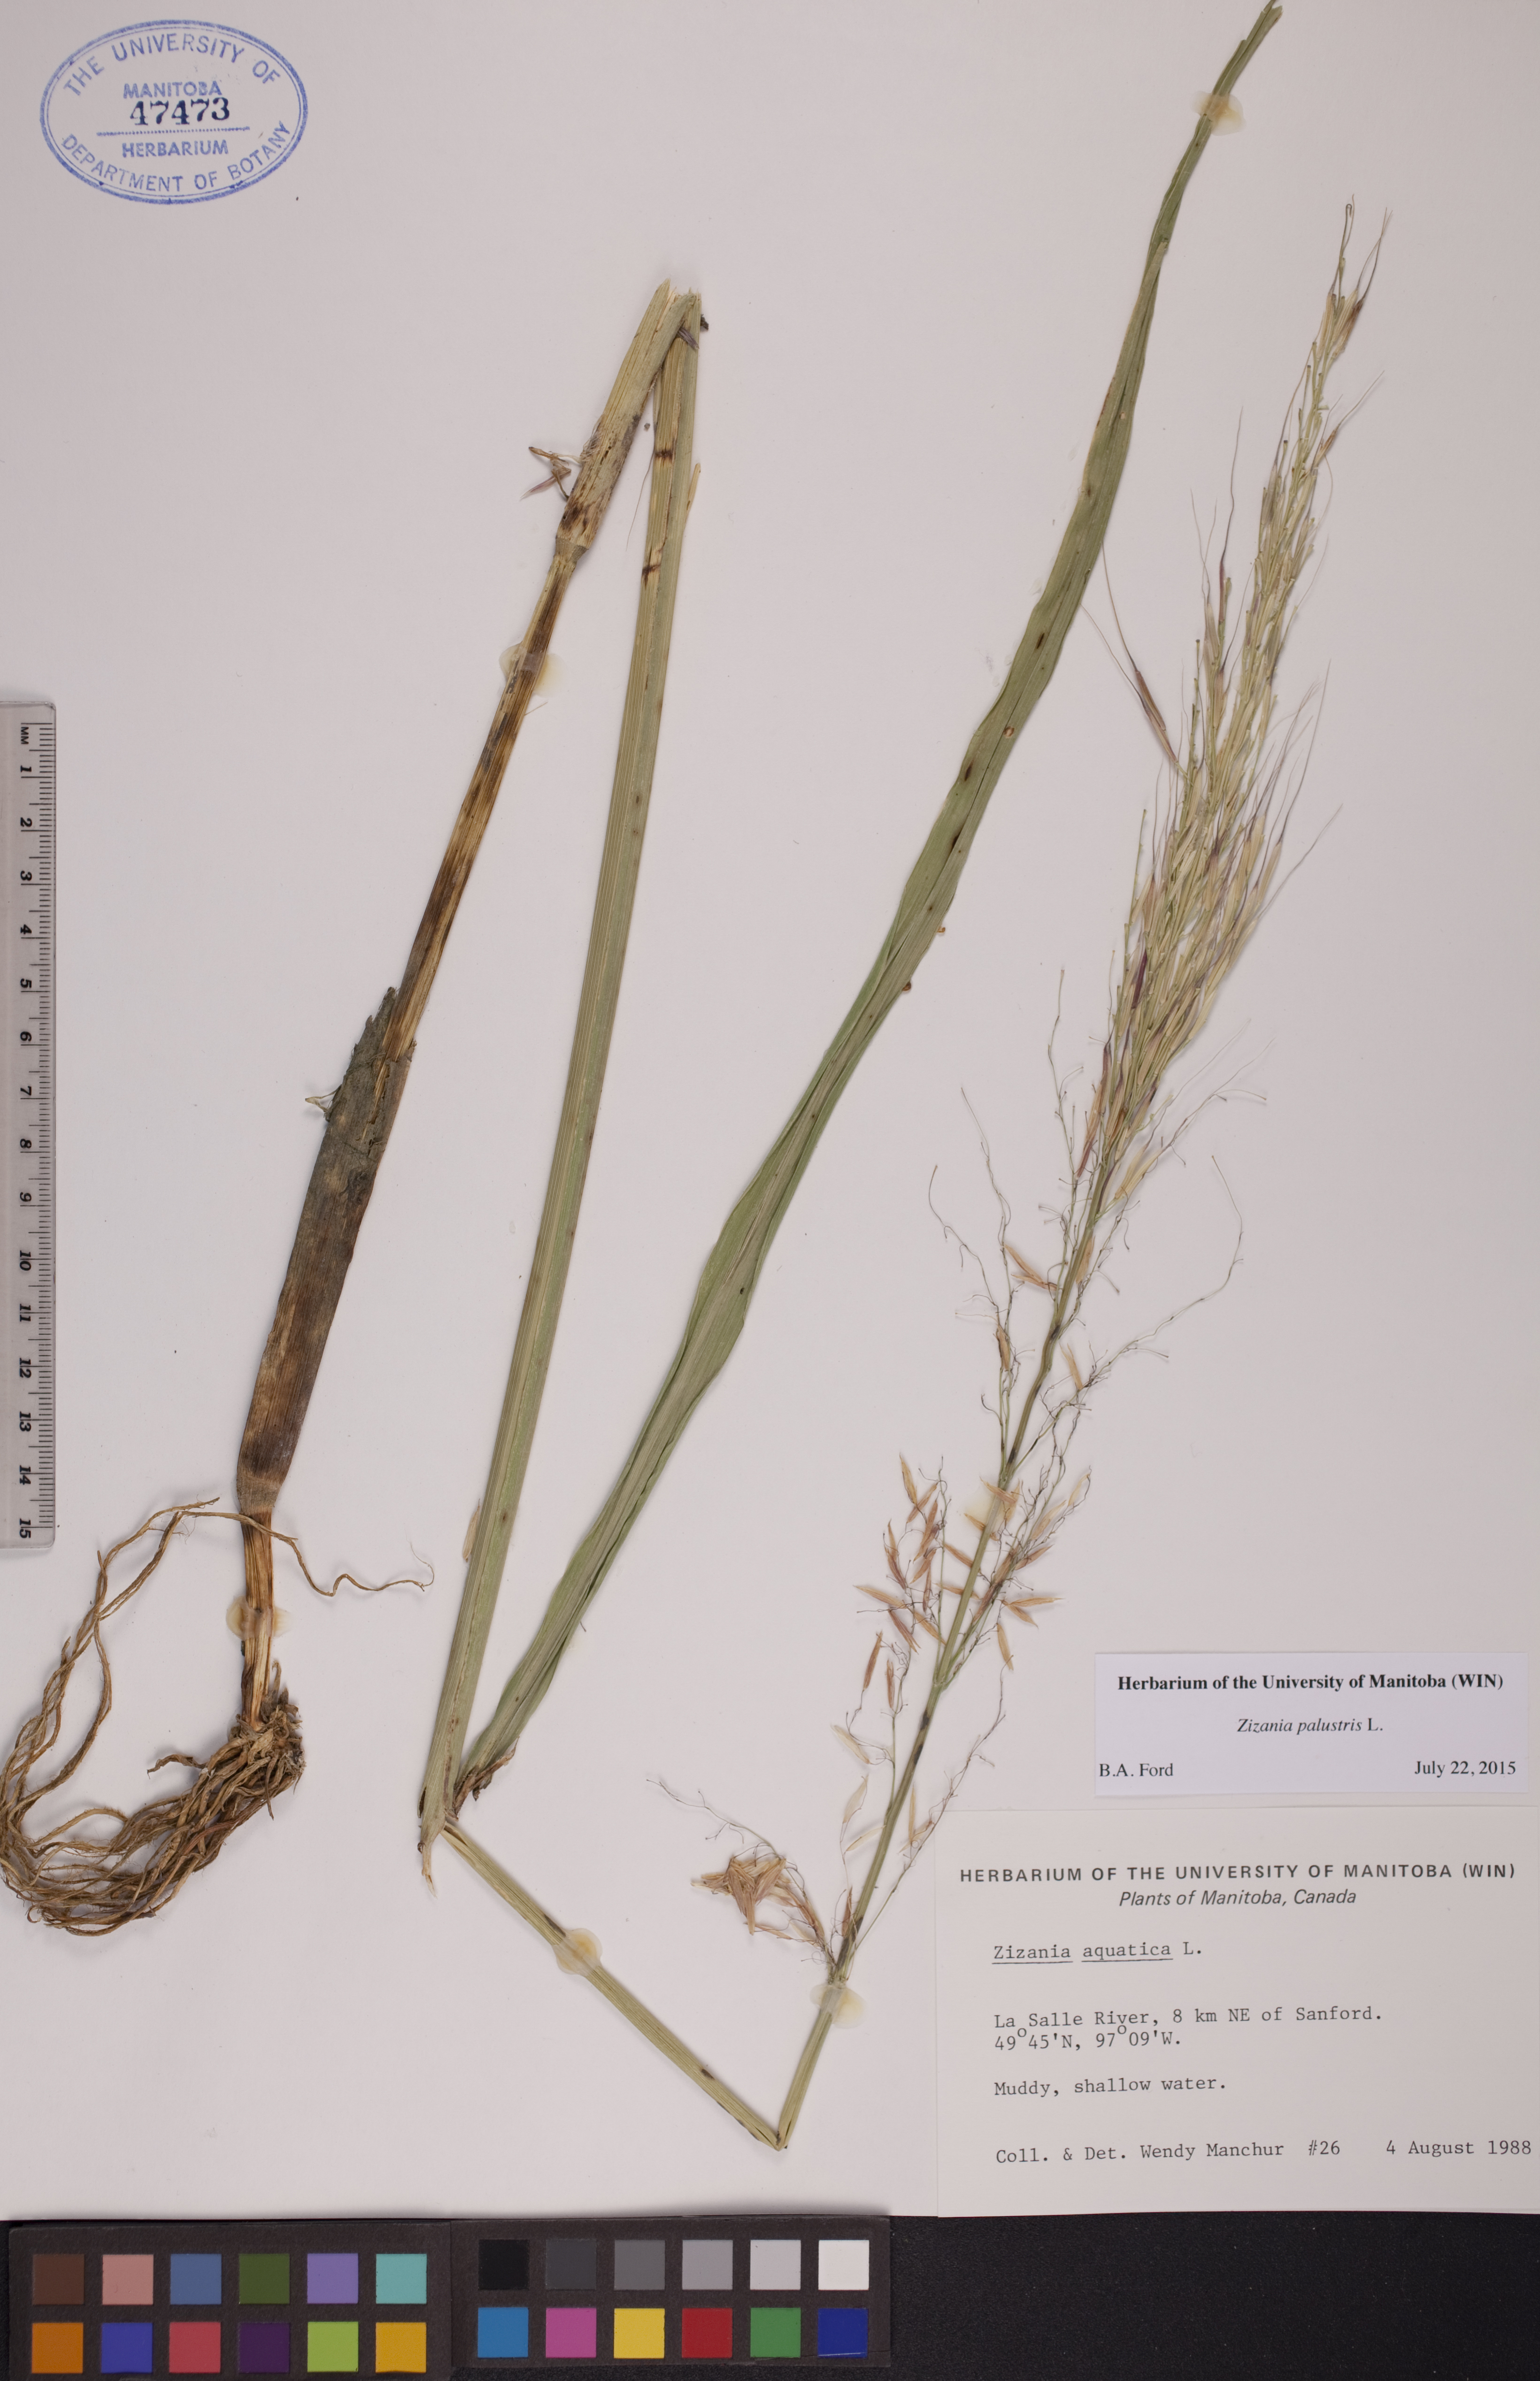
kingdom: Plantae
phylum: Tracheophyta
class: Liliopsida
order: Poales
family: Poaceae
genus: Zizania
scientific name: Zizania palustris
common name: Northern wild rice
